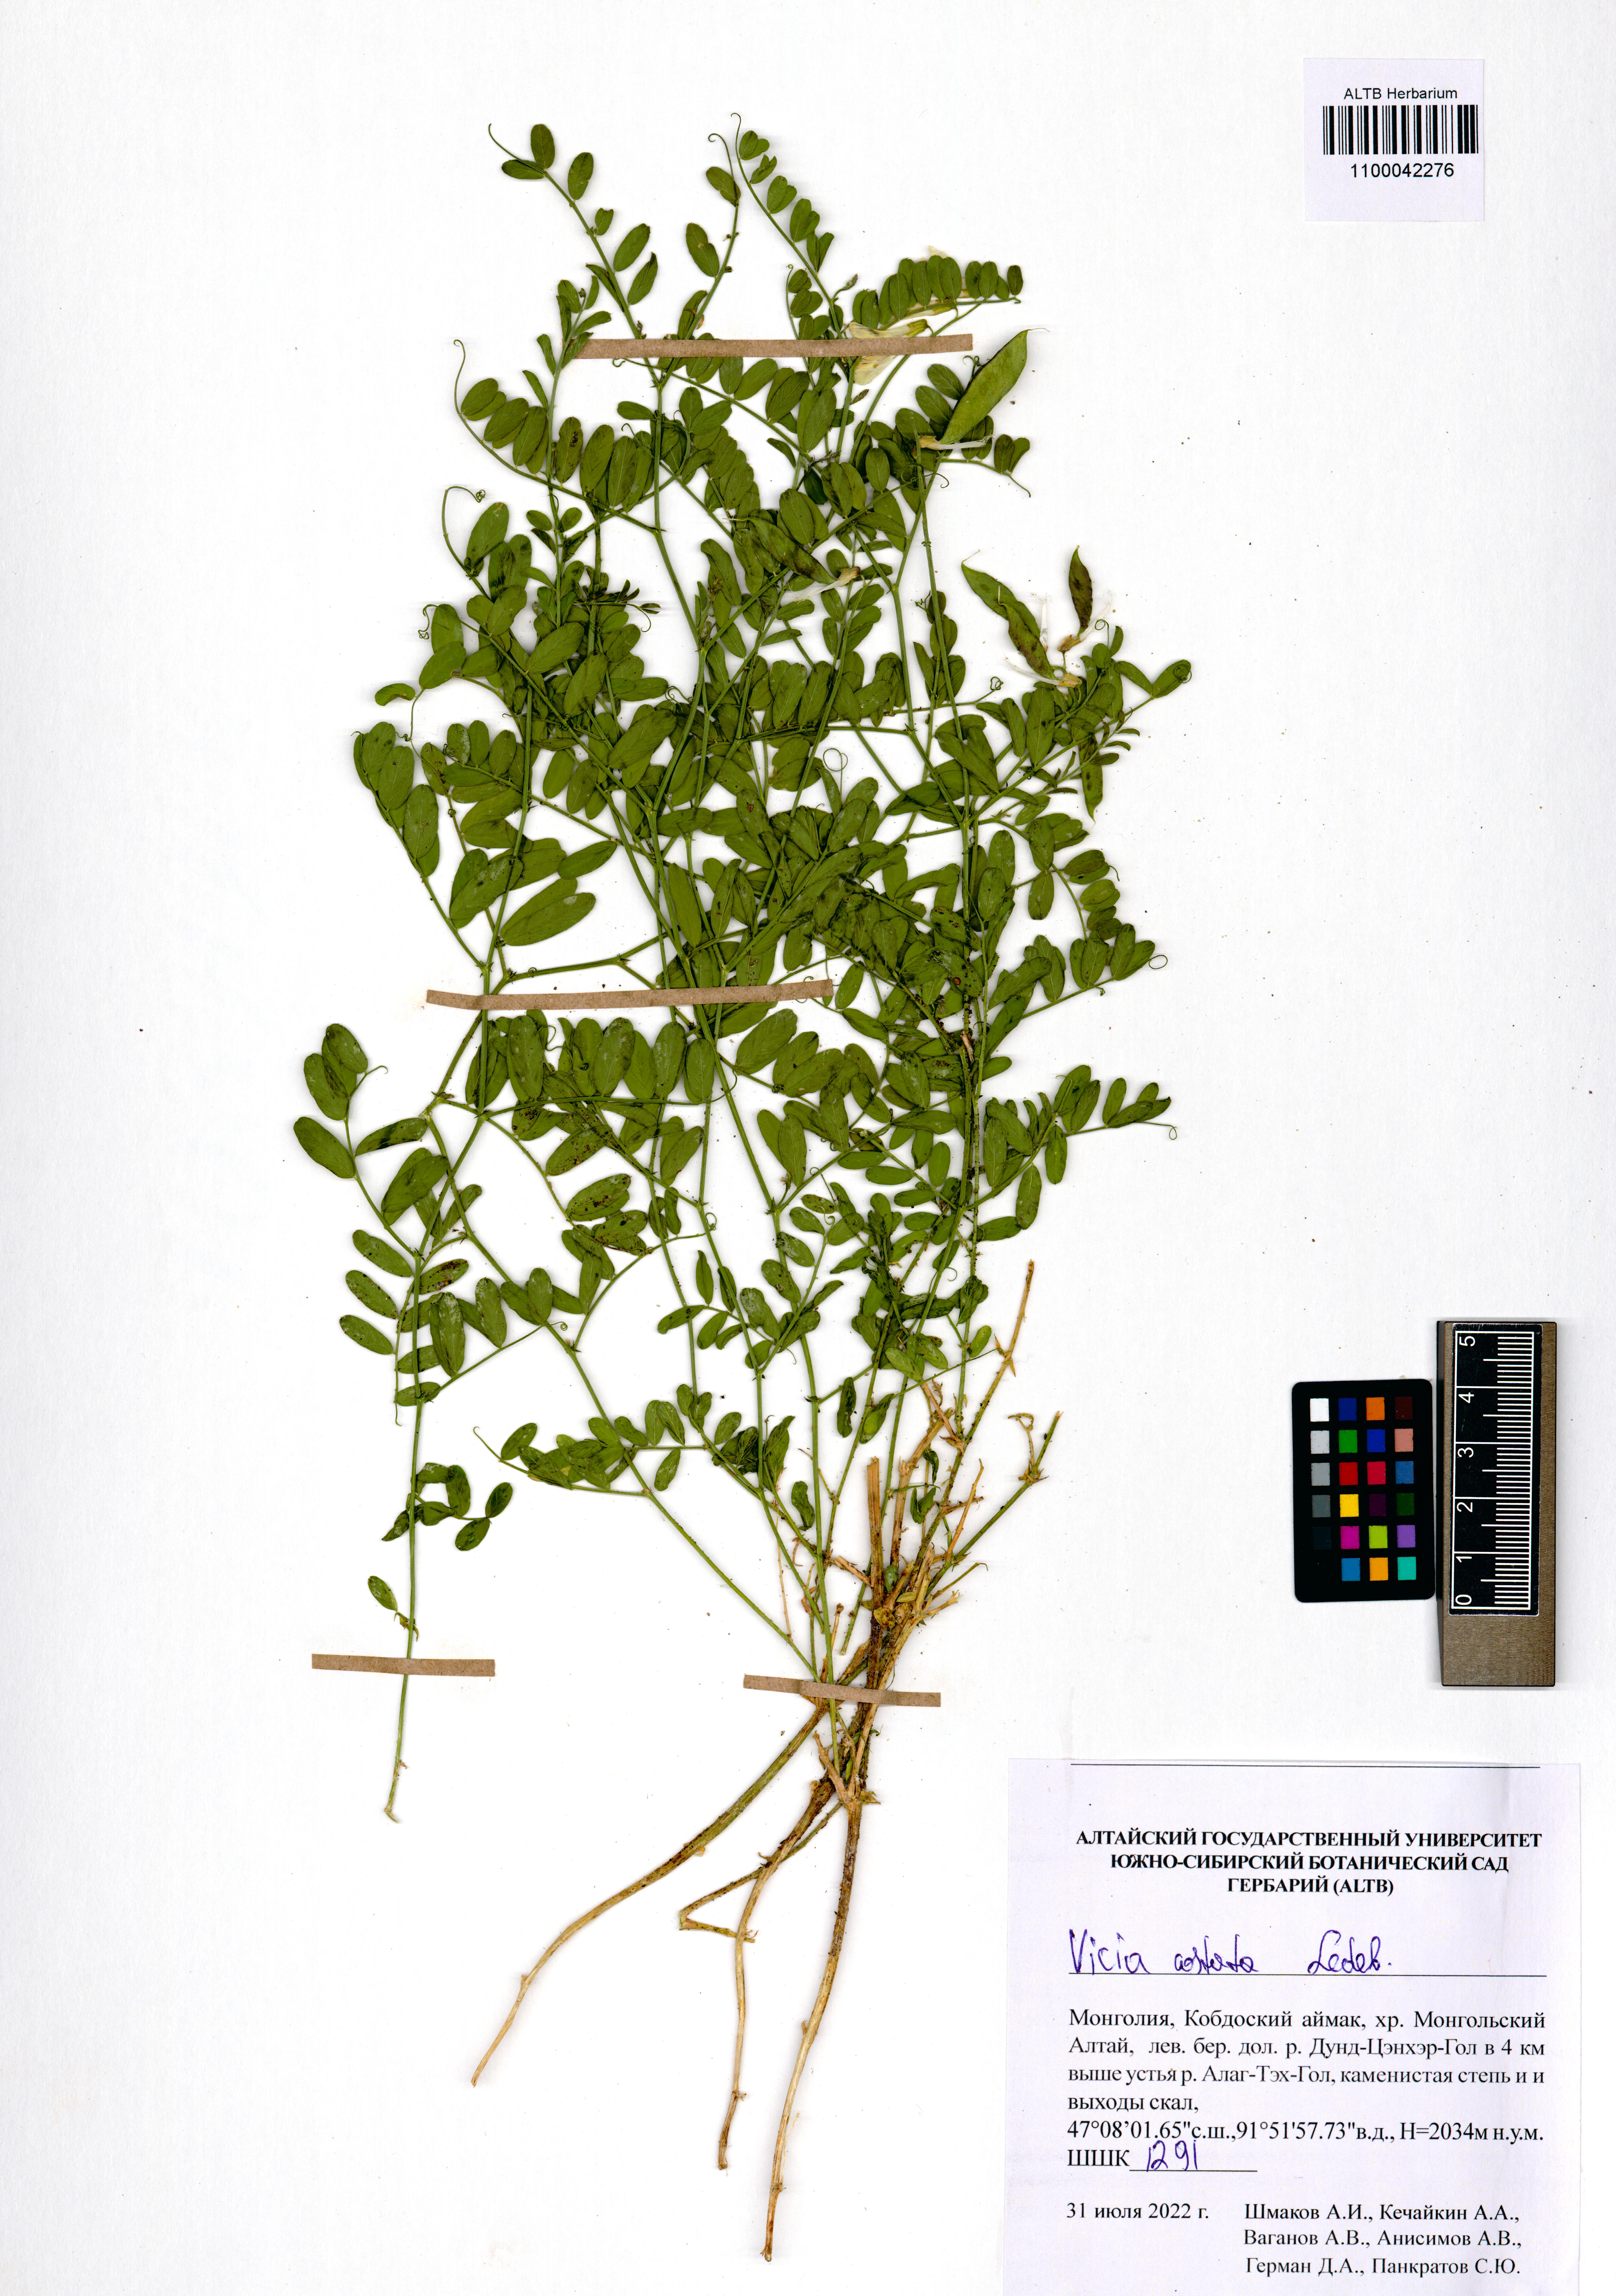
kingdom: Plantae
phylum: Tracheophyta
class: Magnoliopsida
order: Fabales
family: Fabaceae
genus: Vicia
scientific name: Vicia costata
